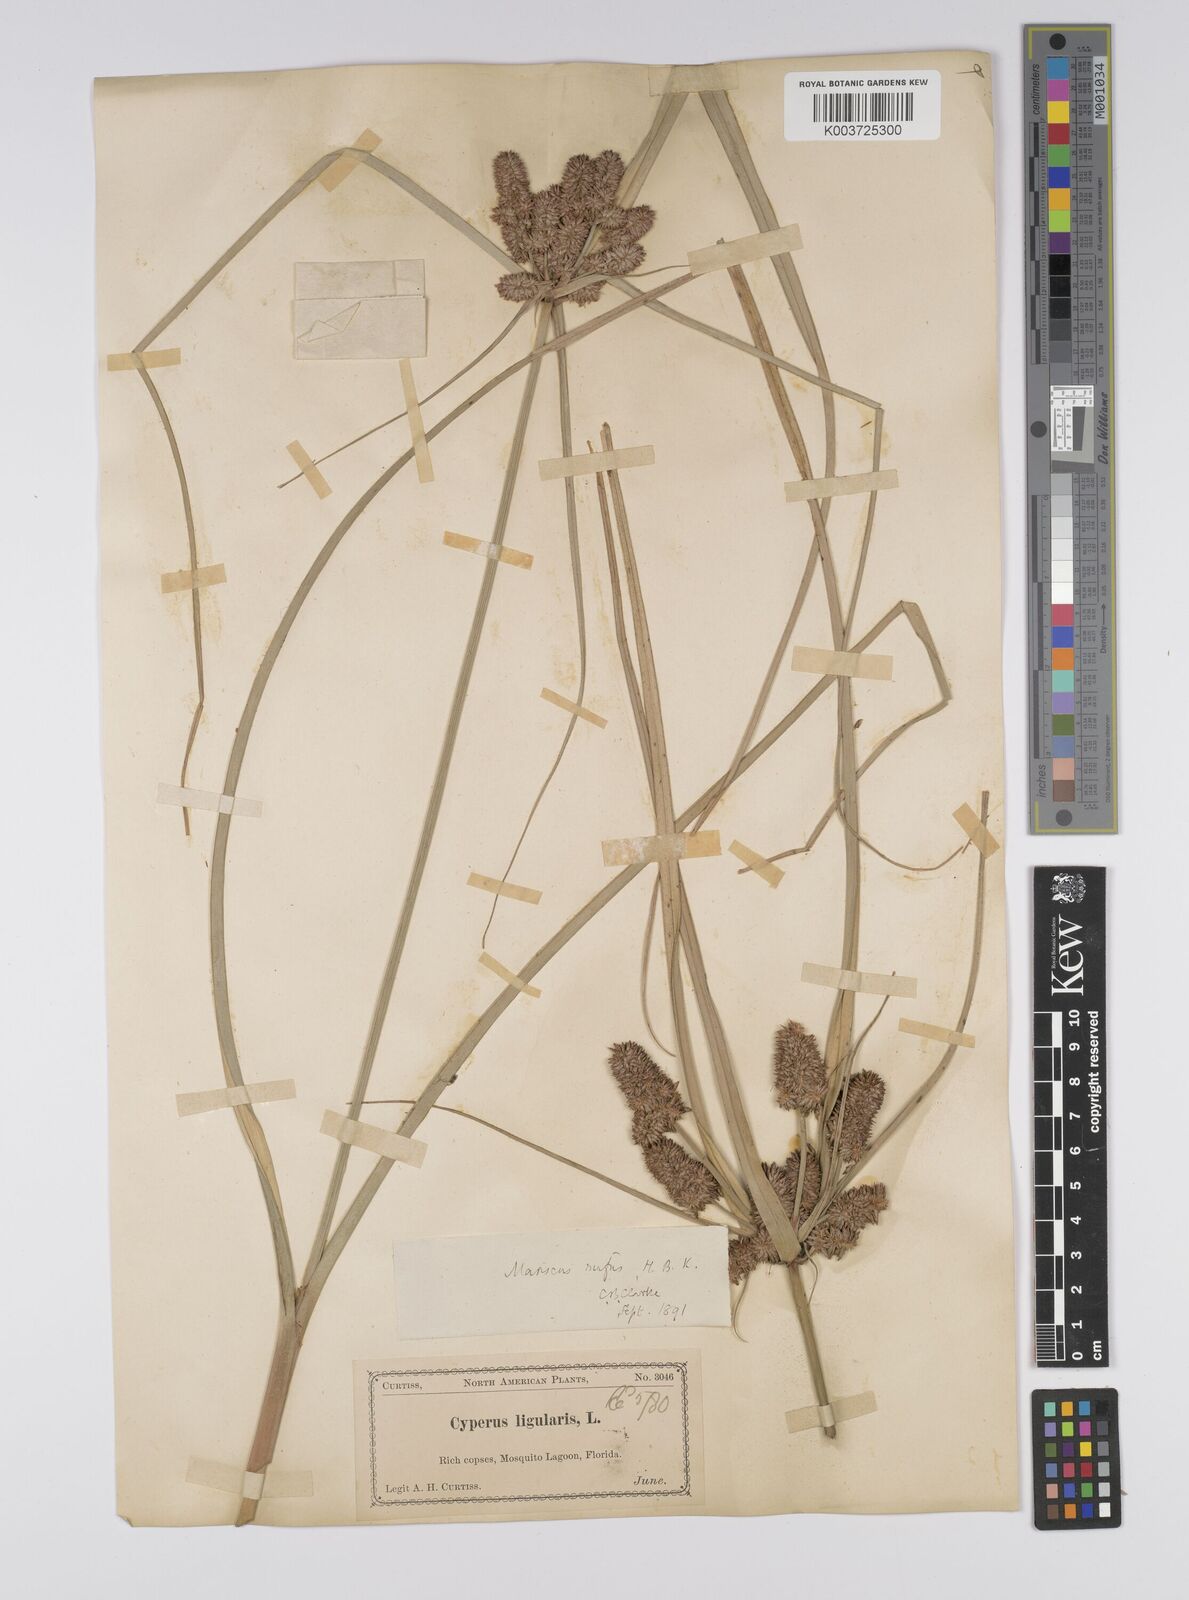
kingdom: Plantae
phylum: Tracheophyta
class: Liliopsida
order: Poales
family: Cyperaceae
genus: Cyperus
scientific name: Cyperus ligularis
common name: Swamp flat sedge
